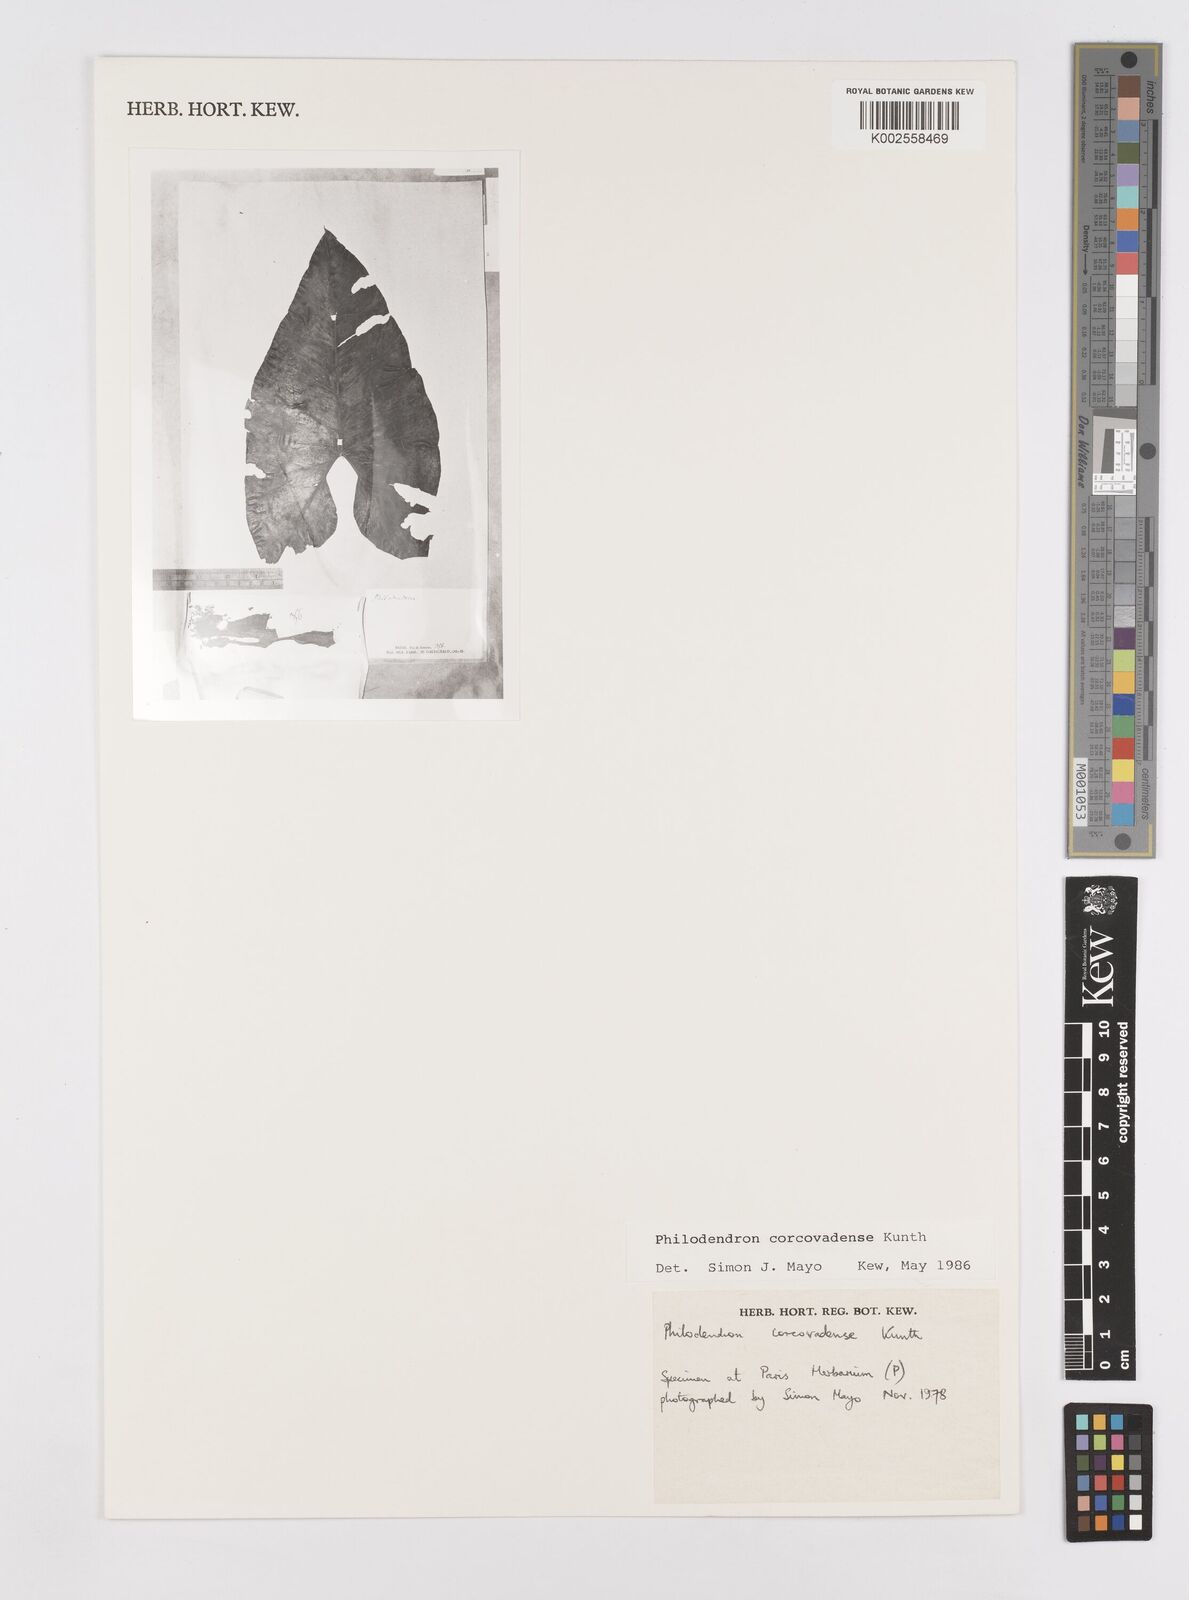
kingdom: Plantae
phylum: Tracheophyta
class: Liliopsida
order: Alismatales
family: Araceae
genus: Thaumatophyllum
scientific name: Thaumatophyllum corcovadense
